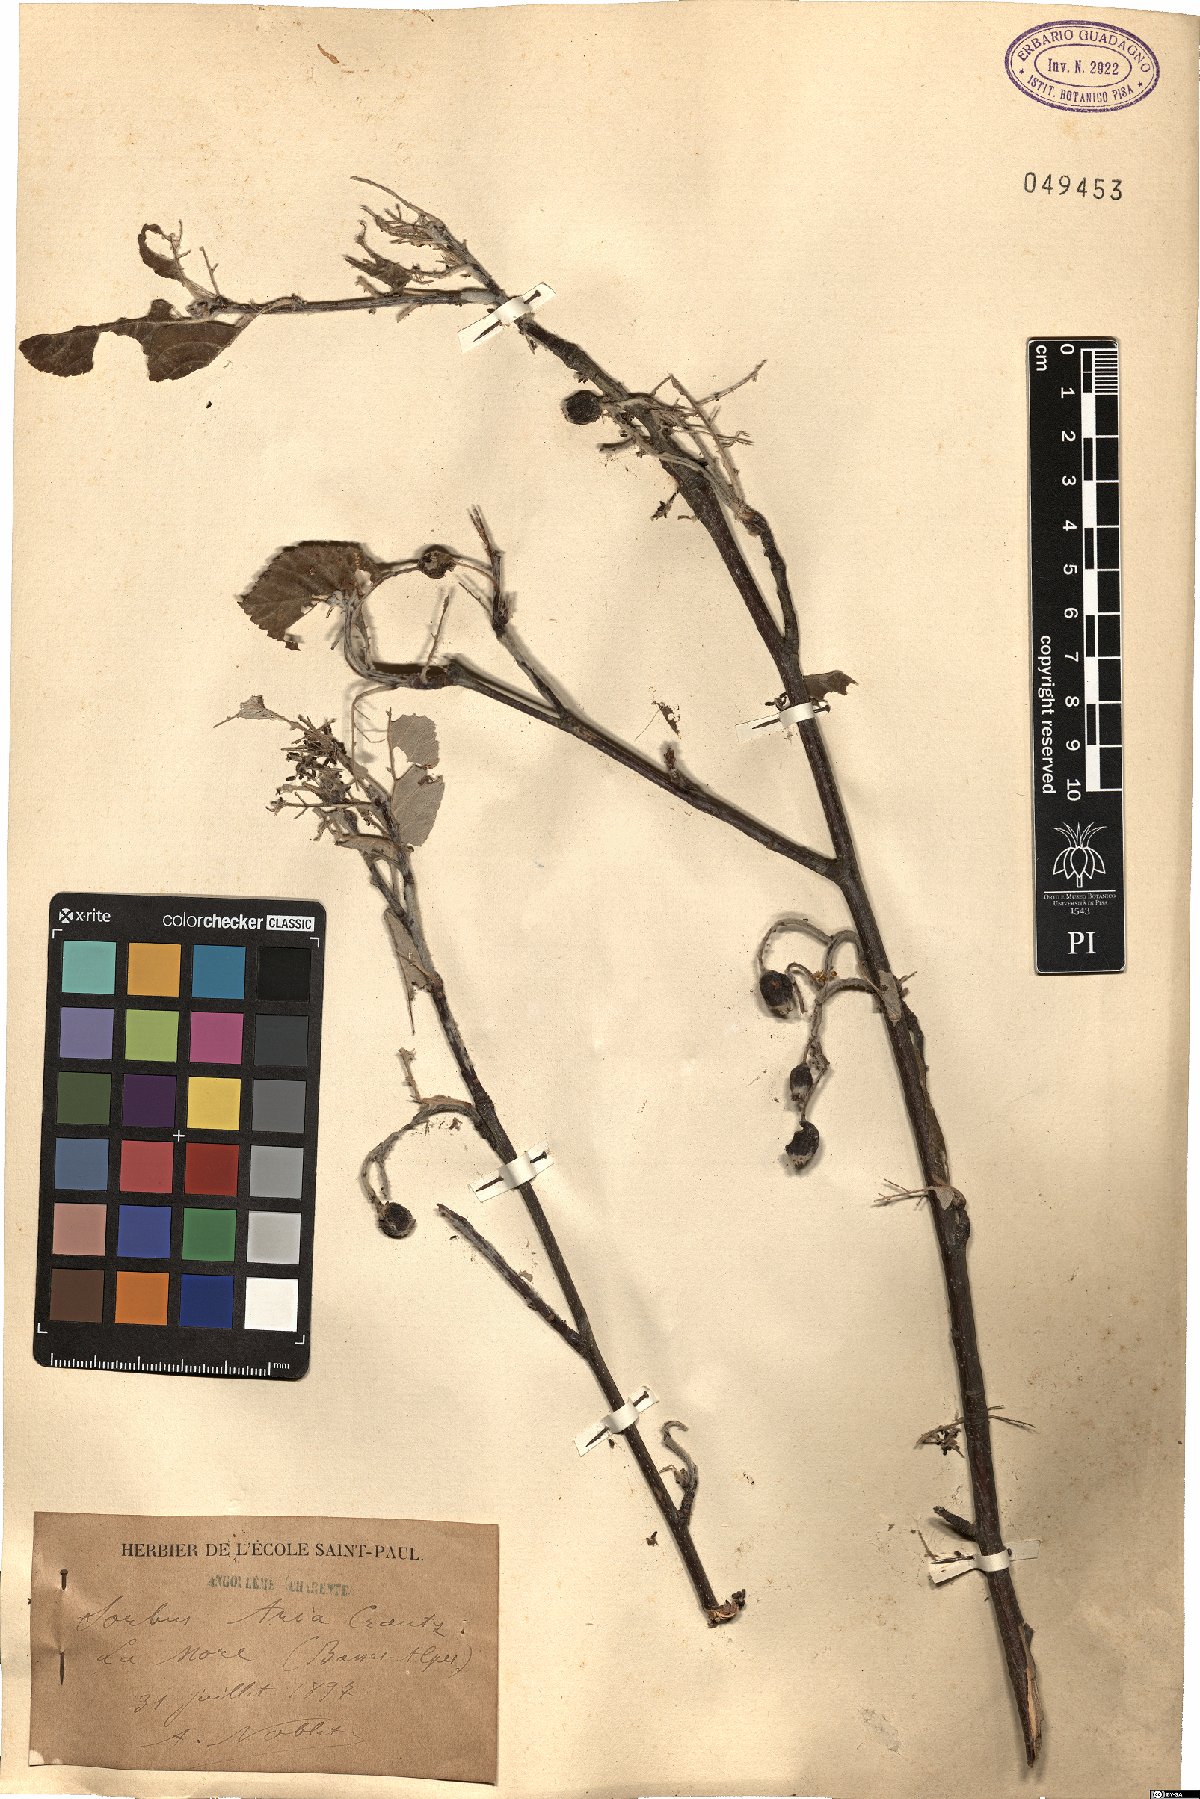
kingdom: Plantae
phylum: Tracheophyta
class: Magnoliopsida
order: Rosales
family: Rosaceae
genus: Aria
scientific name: Aria edulis
